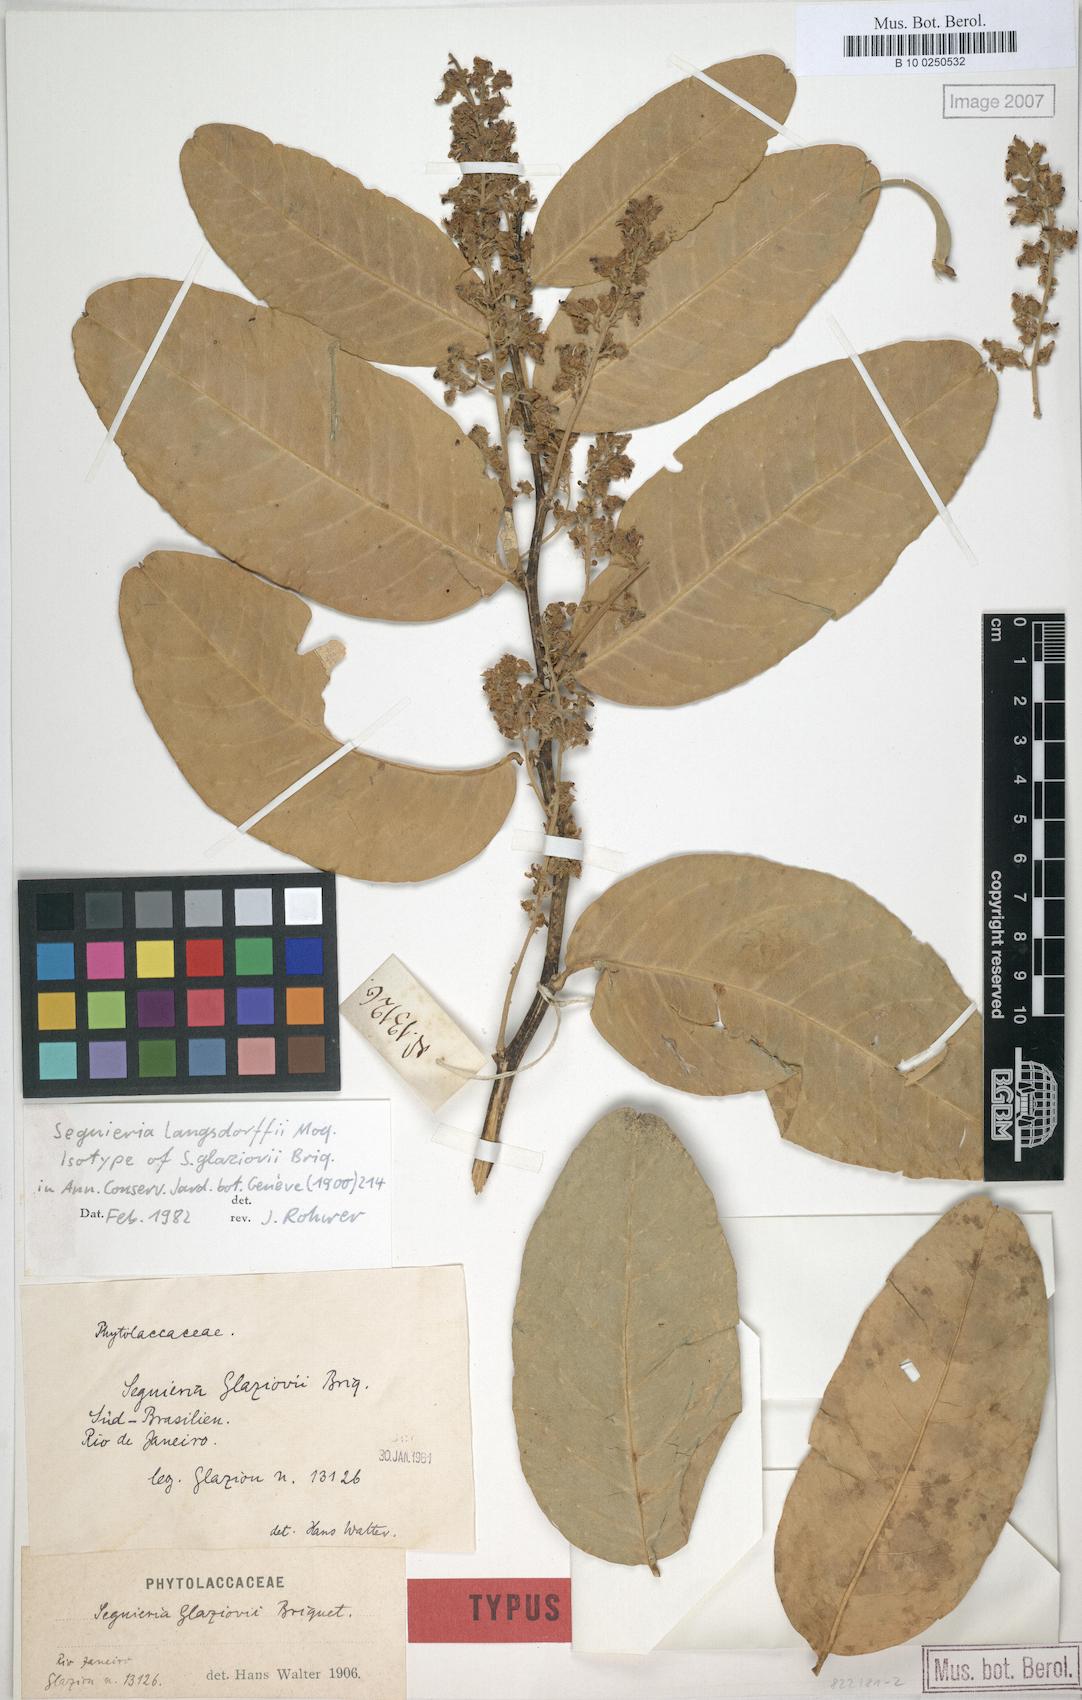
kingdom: Plantae
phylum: Tracheophyta
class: Magnoliopsida
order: Caryophyllales
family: Phytolaccaceae
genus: Seguieria
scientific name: Seguieria langsdorffii
